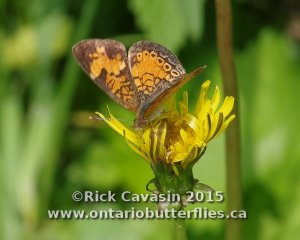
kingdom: Animalia
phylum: Arthropoda
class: Insecta
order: Lepidoptera
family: Nymphalidae
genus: Phyciodes
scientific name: Phyciodes tharos
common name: Northern Crescent
